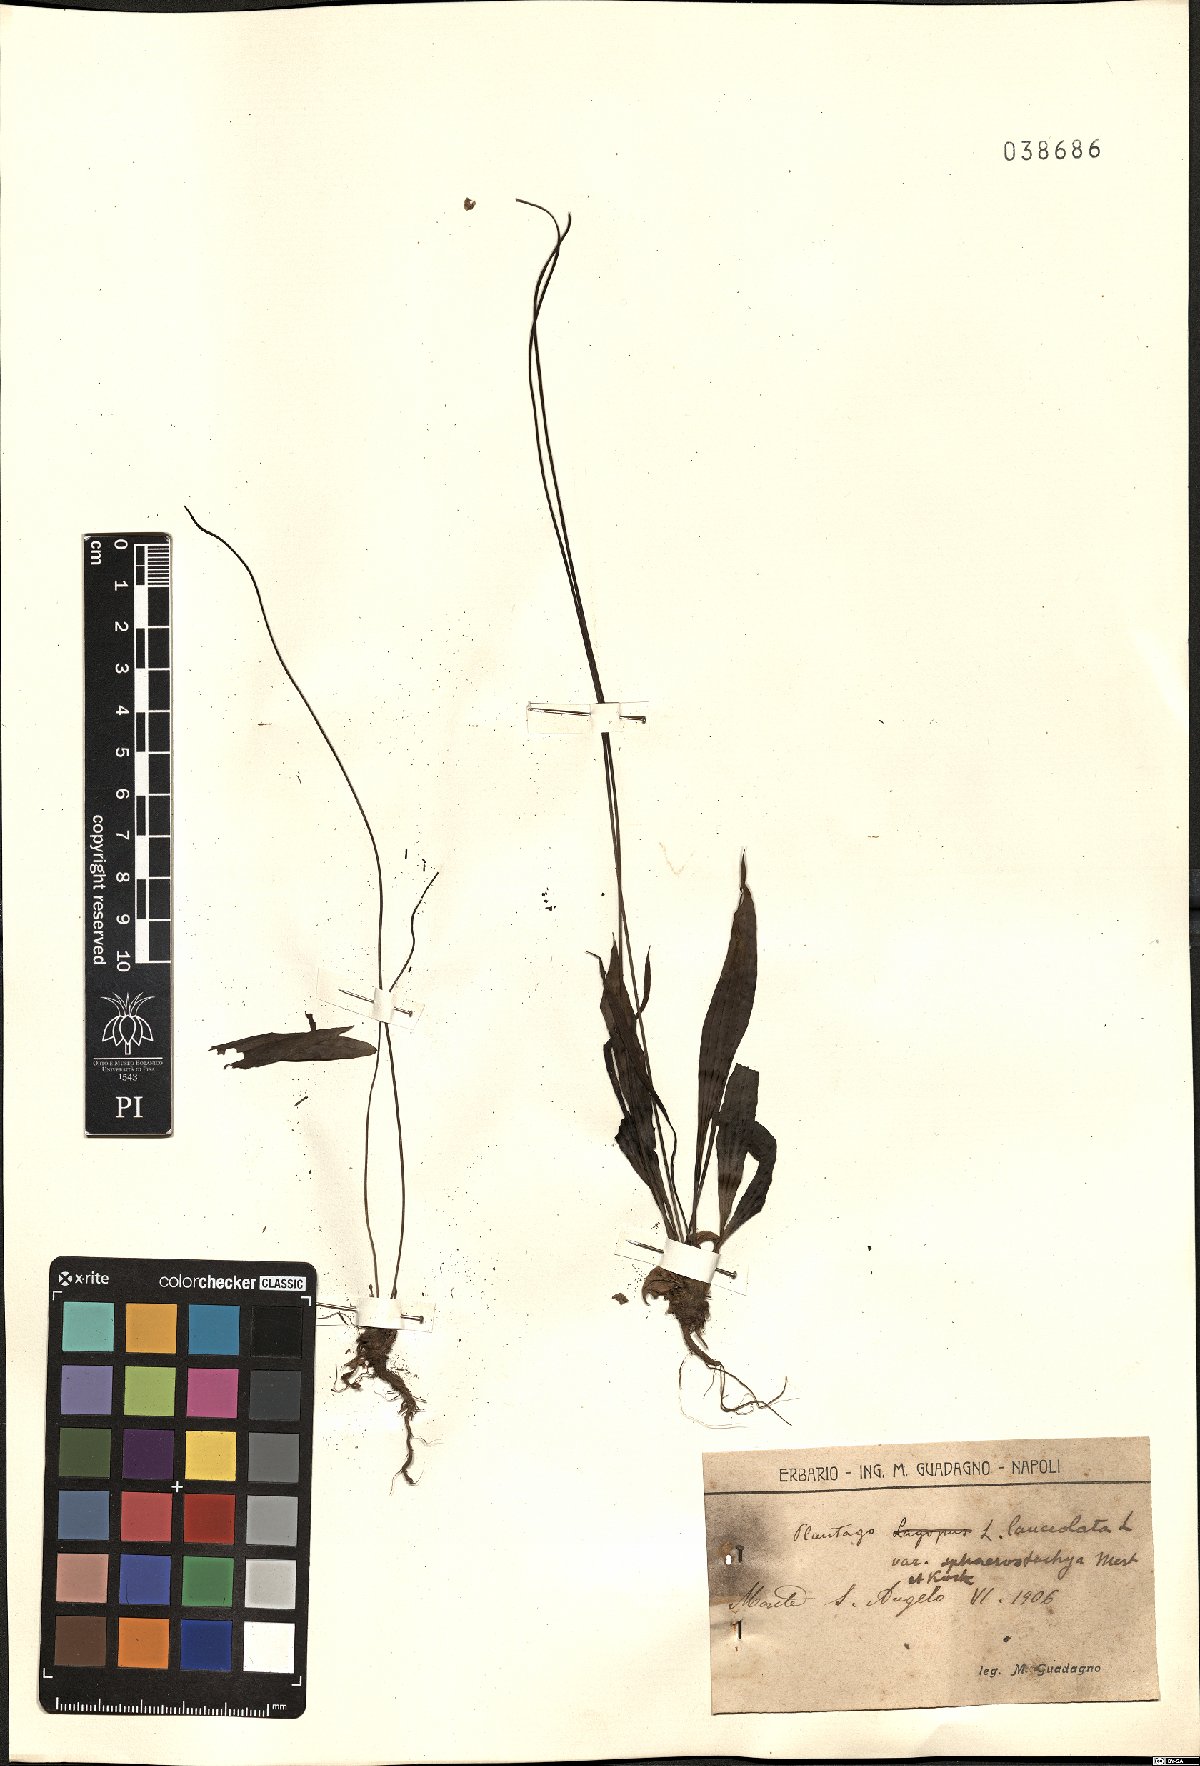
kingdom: Plantae
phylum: Tracheophyta
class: Magnoliopsida
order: Lamiales
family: Plantaginaceae
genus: Plantago
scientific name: Plantago lanceolata
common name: Ribwort plantain
